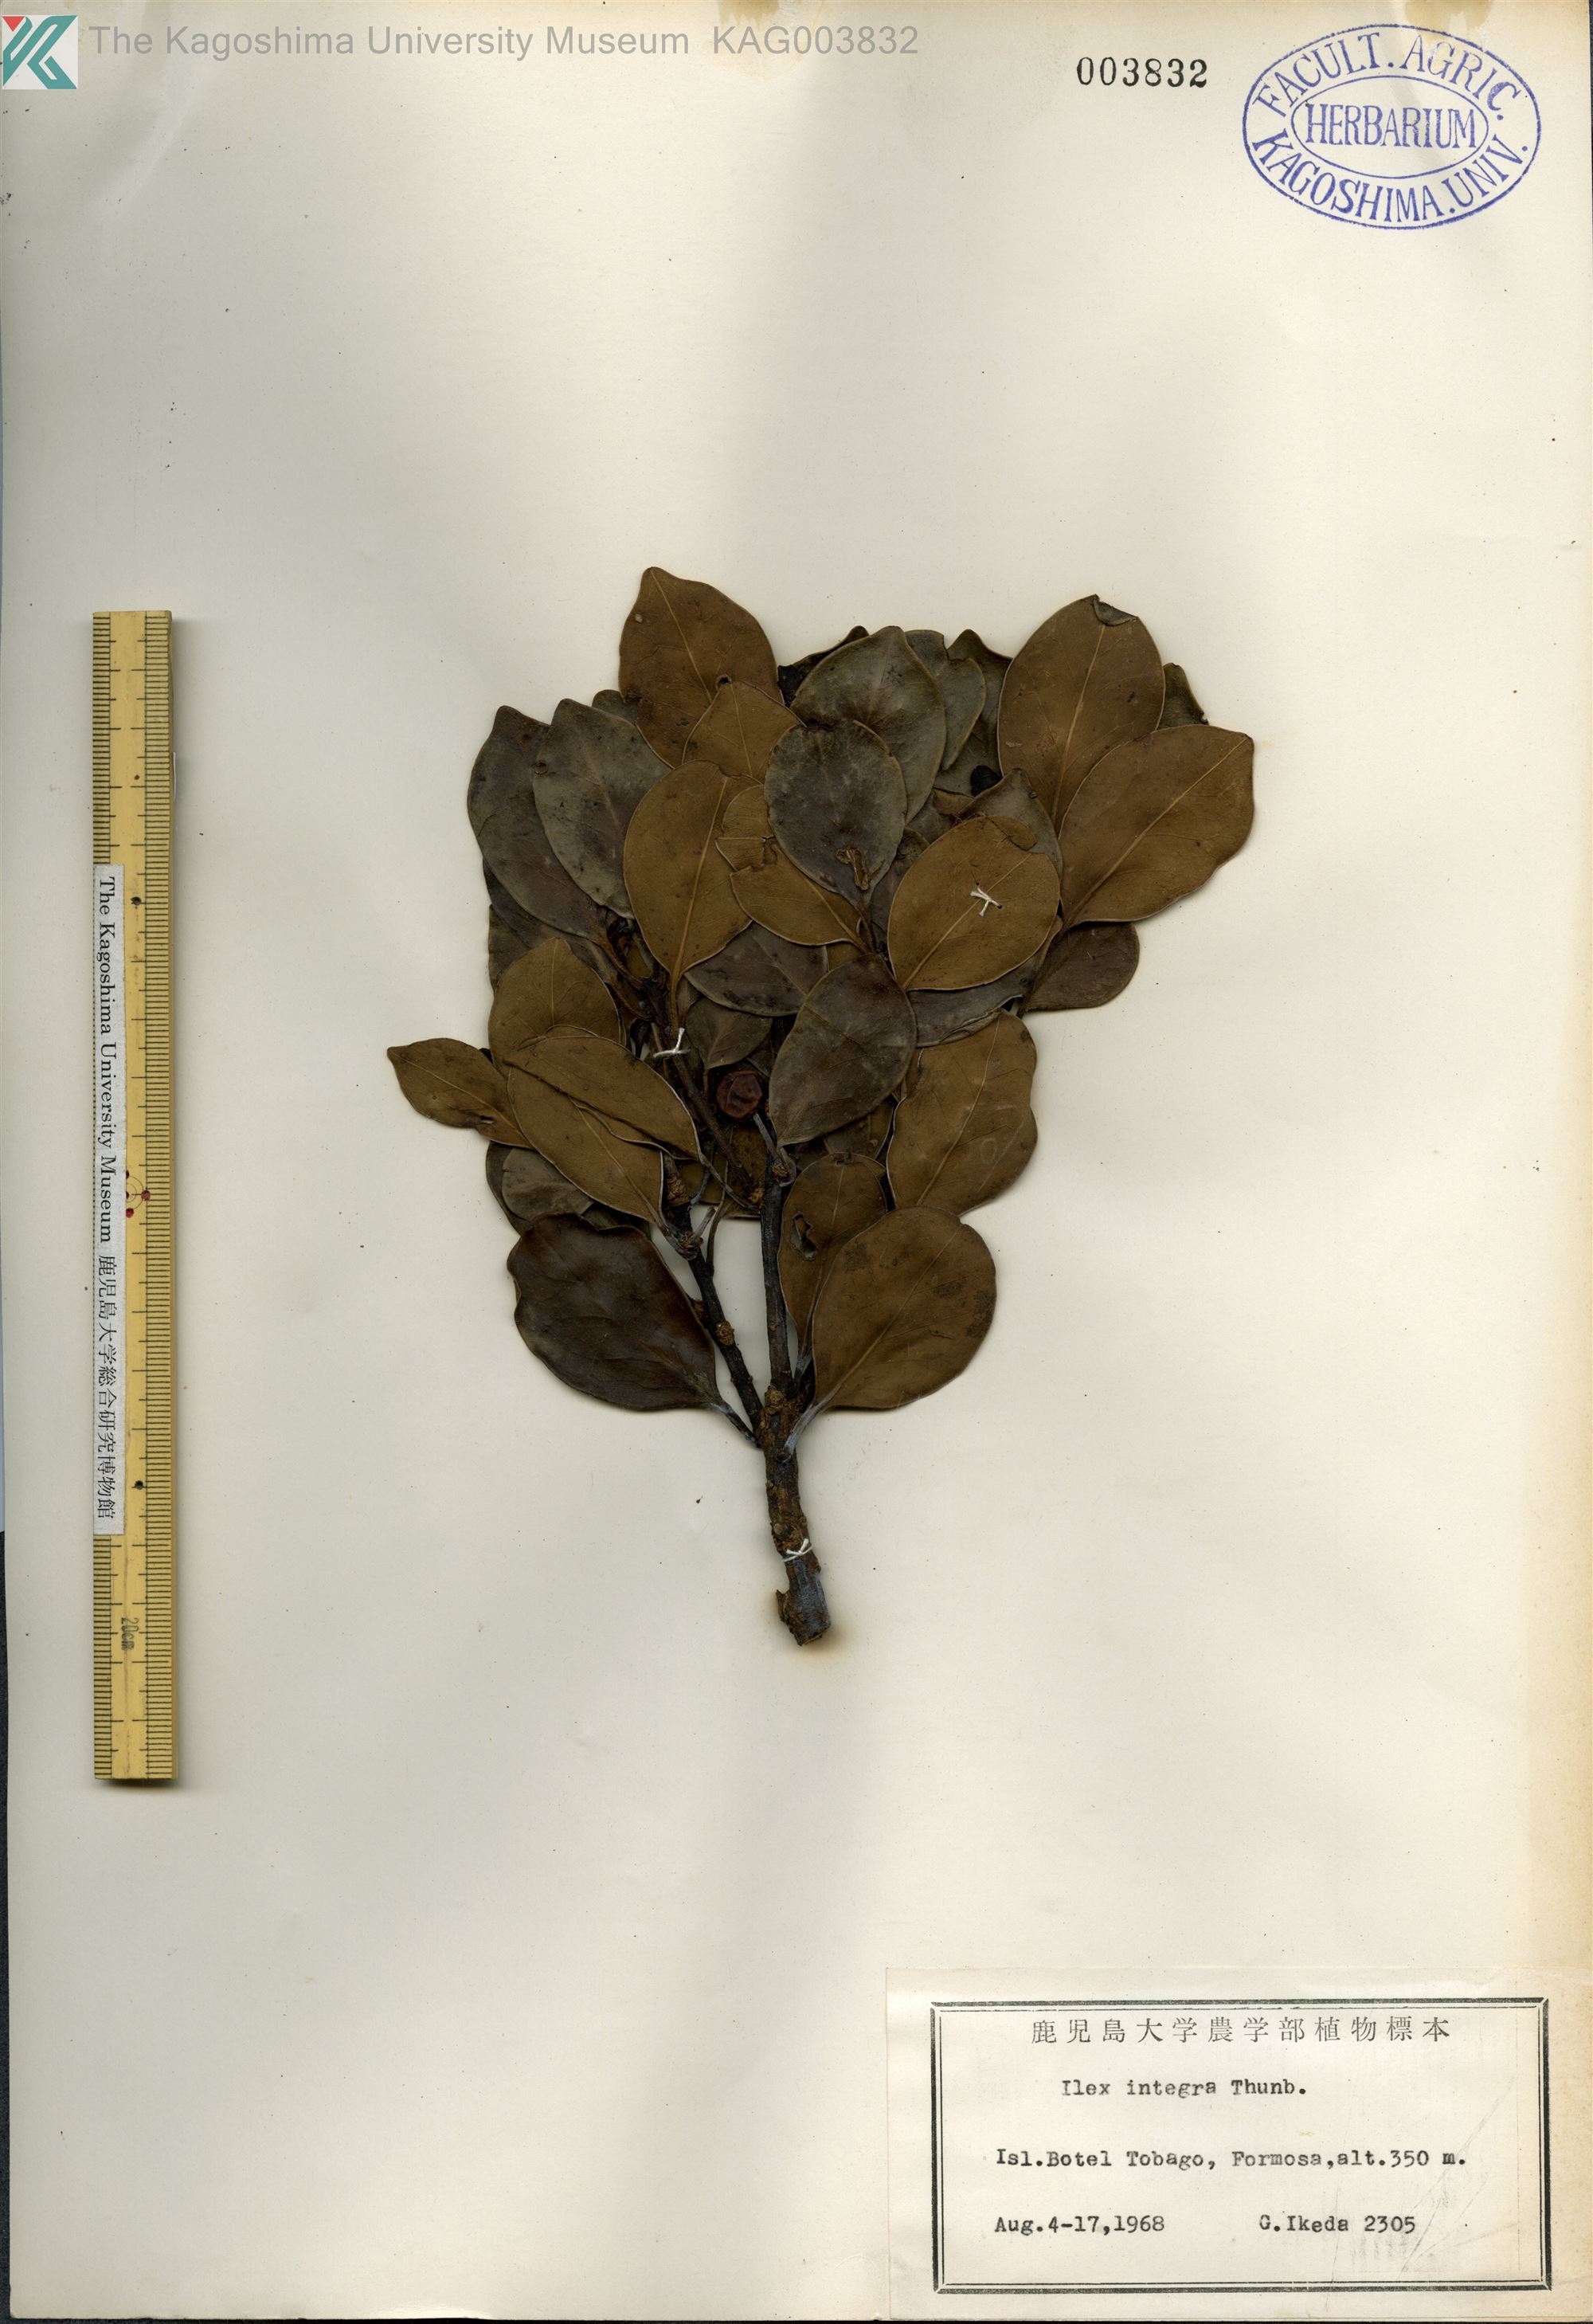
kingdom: Plantae
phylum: Tracheophyta
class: Magnoliopsida
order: Aquifoliales
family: Aquifoliaceae
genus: Ilex
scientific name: Ilex integra
